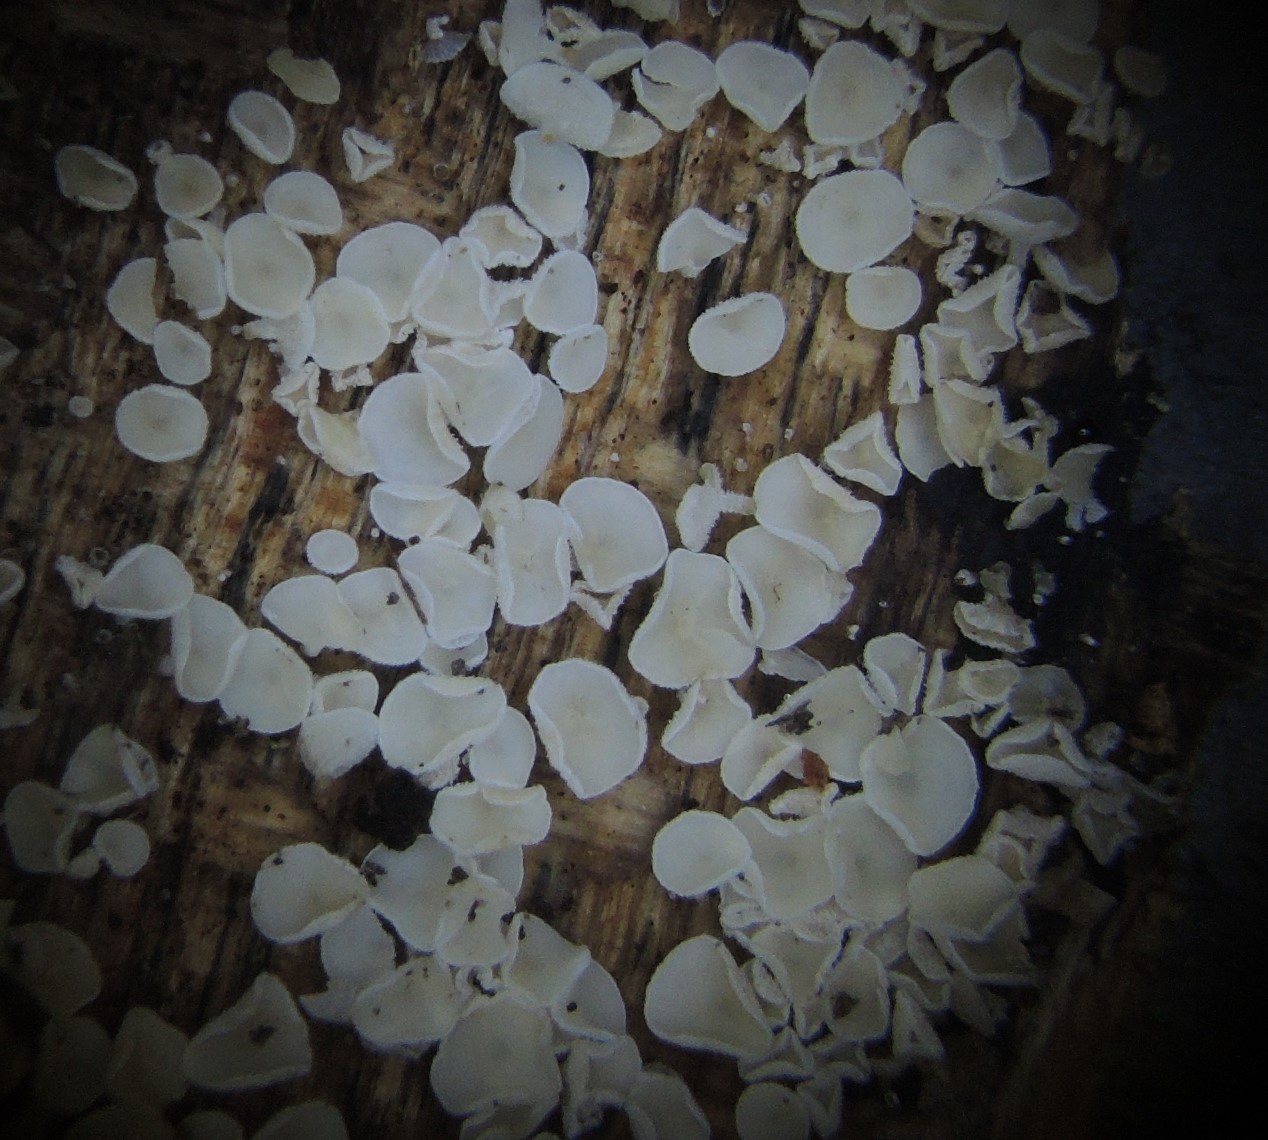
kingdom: Fungi
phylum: Ascomycota
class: Leotiomycetes
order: Helotiales
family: Lachnaceae
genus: Lachnum
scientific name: Lachnum impudicum
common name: vinter-frynseskive
